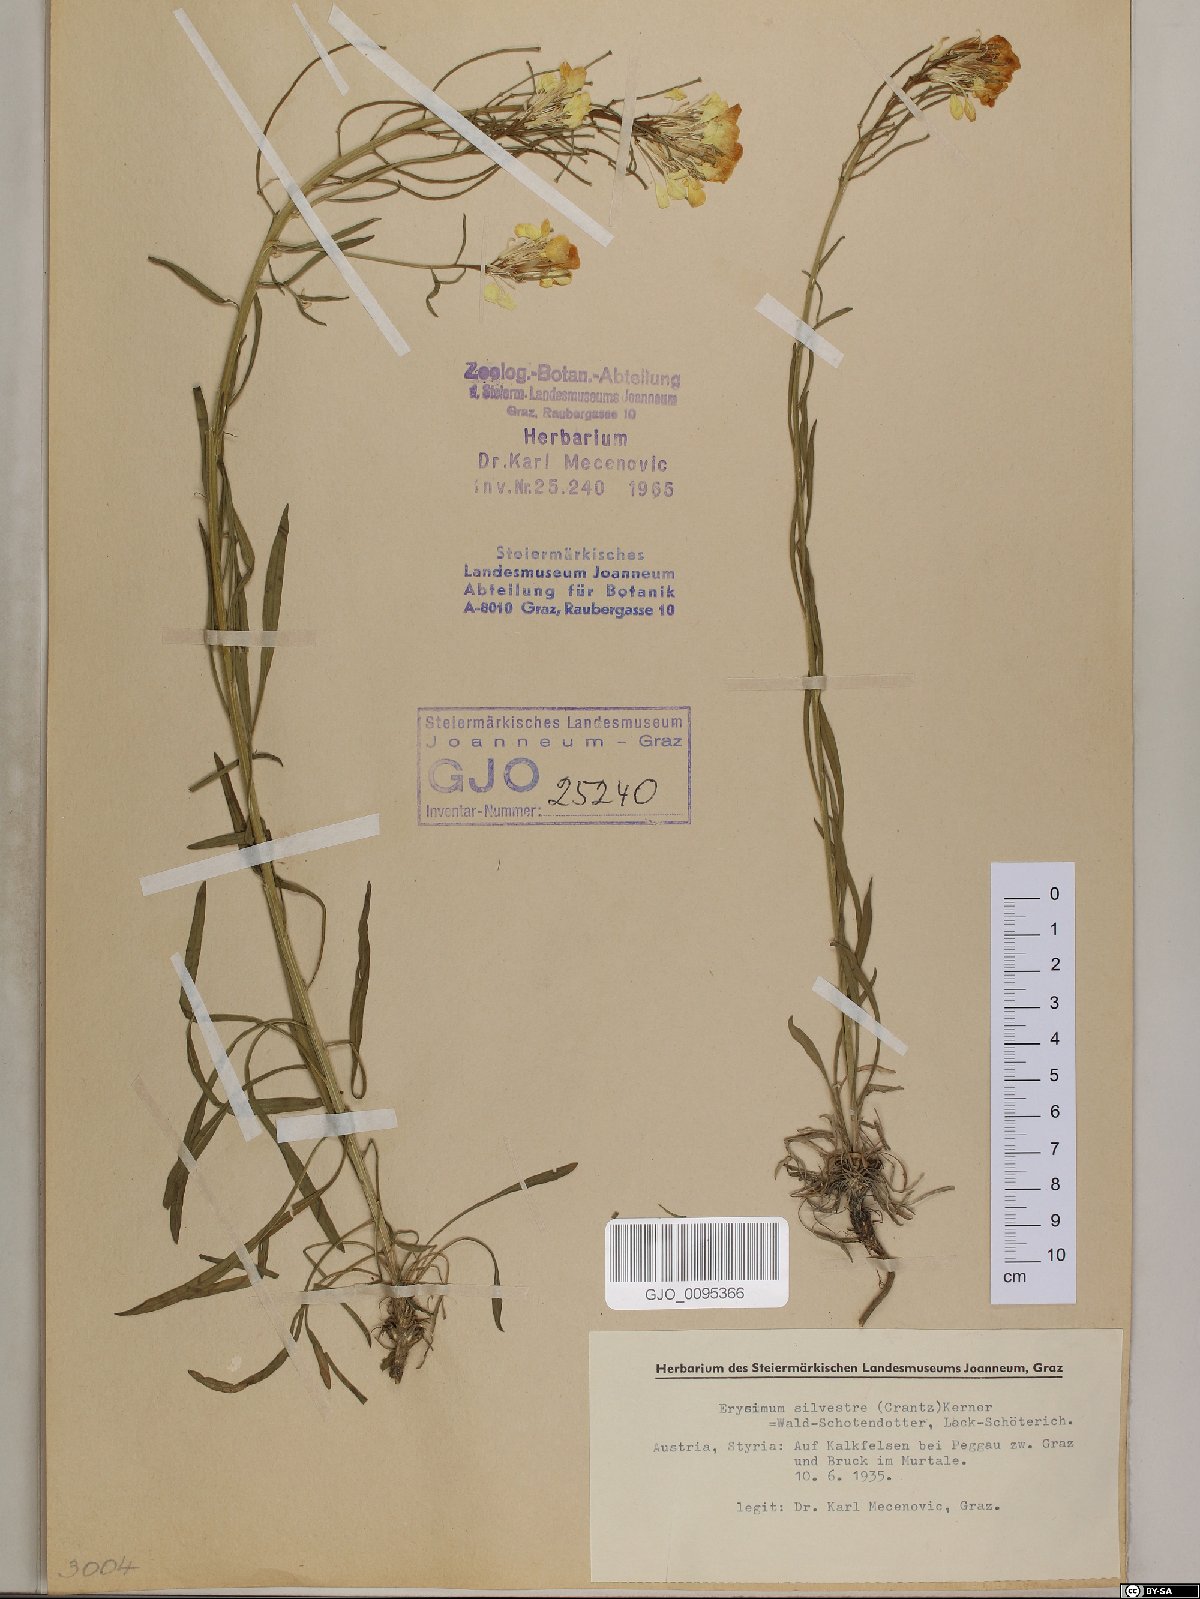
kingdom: Plantae
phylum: Tracheophyta
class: Magnoliopsida
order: Brassicales
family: Brassicaceae
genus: Erysimum
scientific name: Erysimum sylvestre
